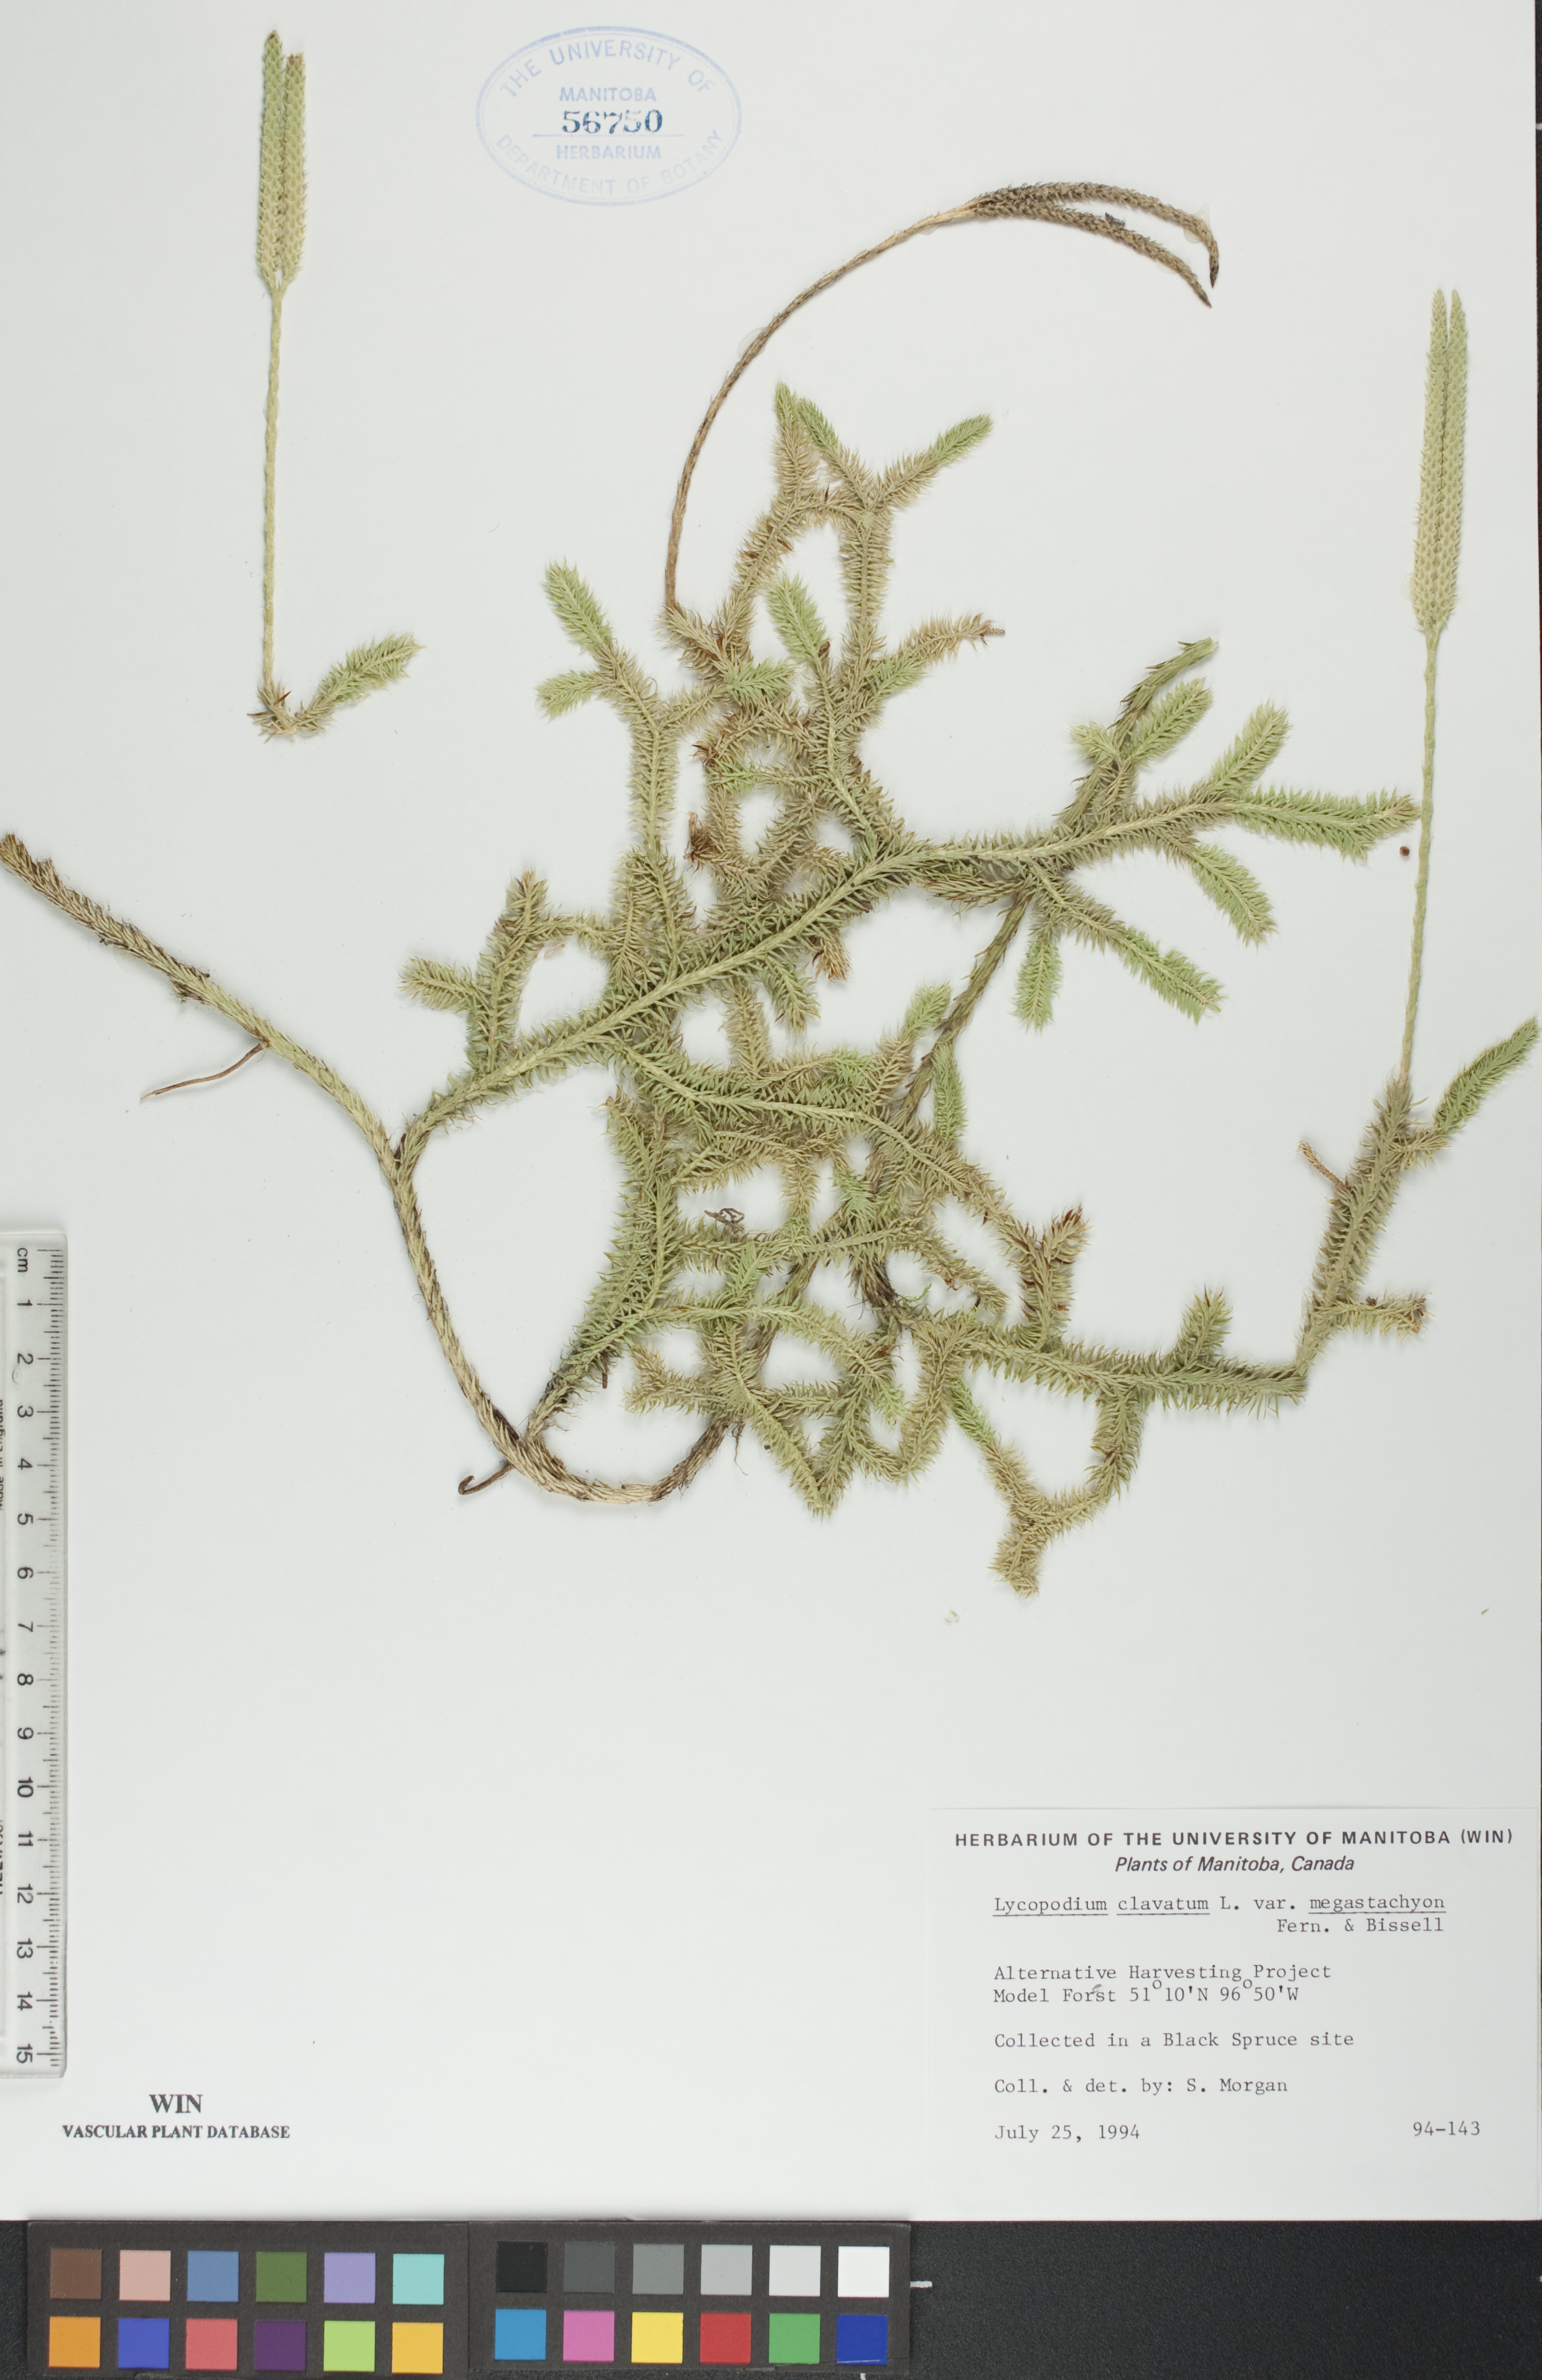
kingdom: Plantae
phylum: Tracheophyta
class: Lycopodiopsida
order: Lycopodiales
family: Lycopodiaceae
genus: Lycopodium
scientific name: Lycopodium lagopus
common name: One-cone clubmoss
